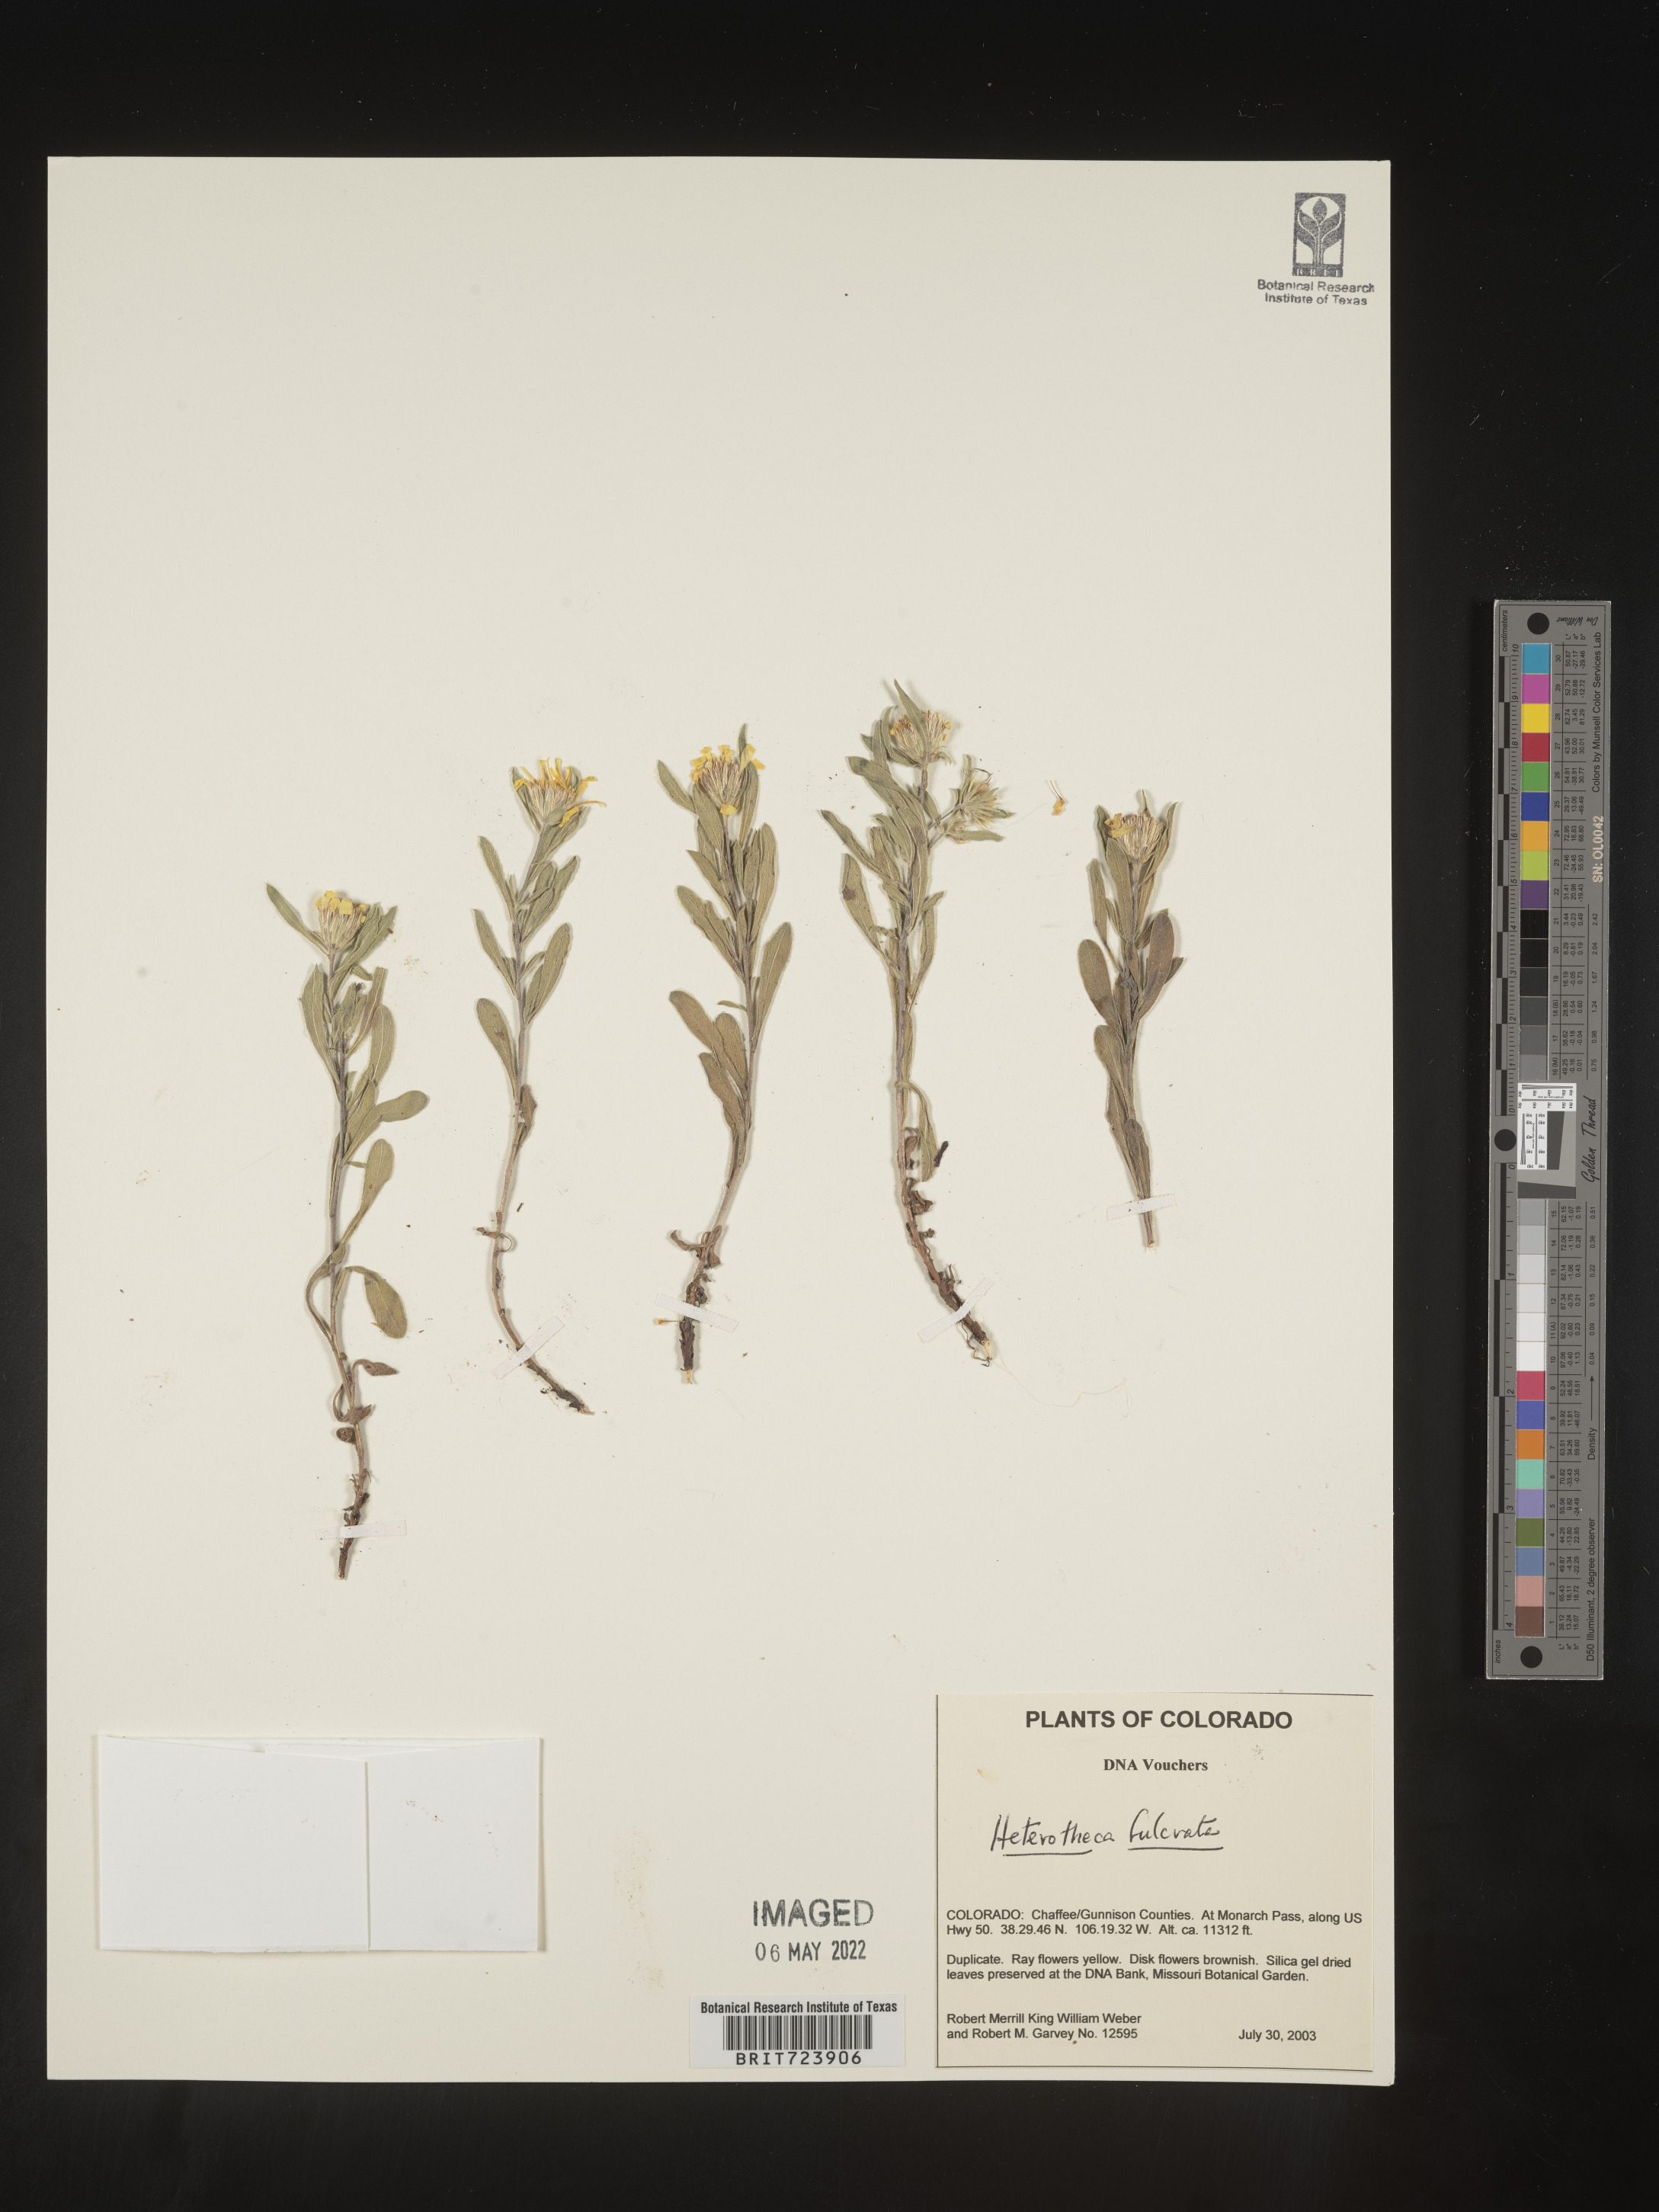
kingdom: Plantae
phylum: Tracheophyta
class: Magnoliopsida
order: Asterales
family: Asteraceae
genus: Heterotheca
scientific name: Heterotheca pumila
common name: Alpine golden-aster
